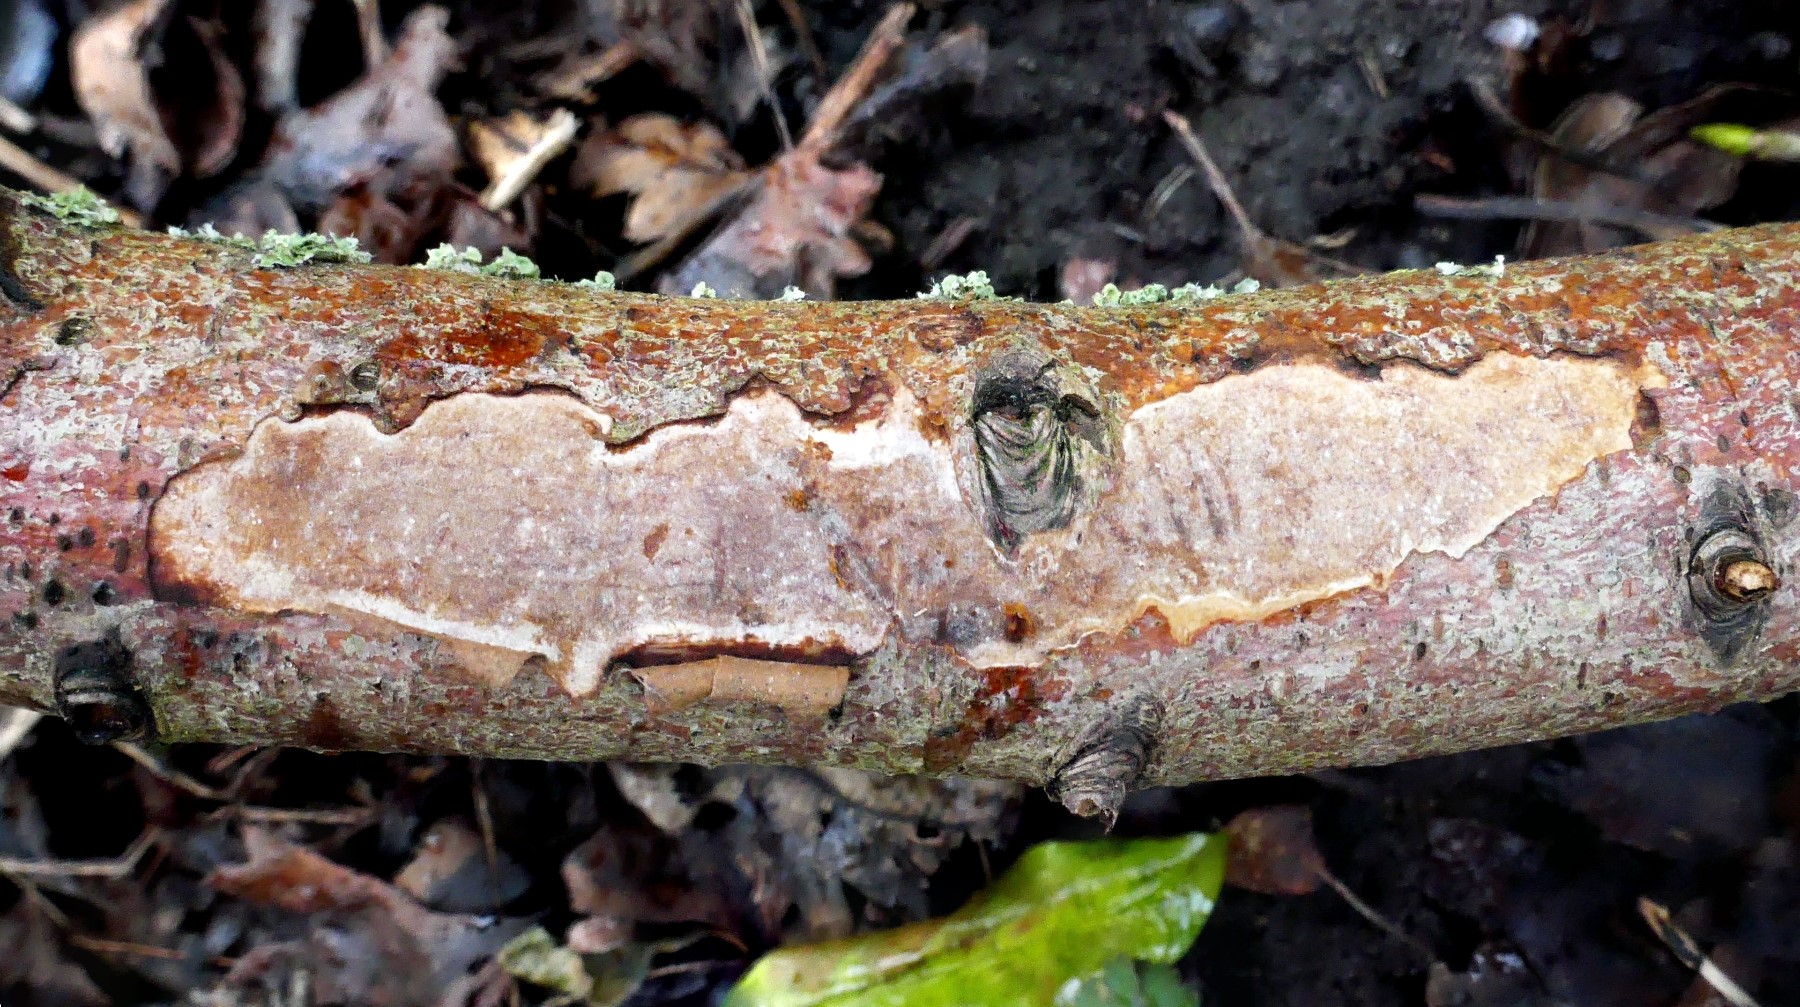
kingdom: Fungi
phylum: Basidiomycota
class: Agaricomycetes
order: Corticiales
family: Vuilleminiaceae
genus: Vuilleminia
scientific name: Vuilleminia coryli
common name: hassel-barksprænger
